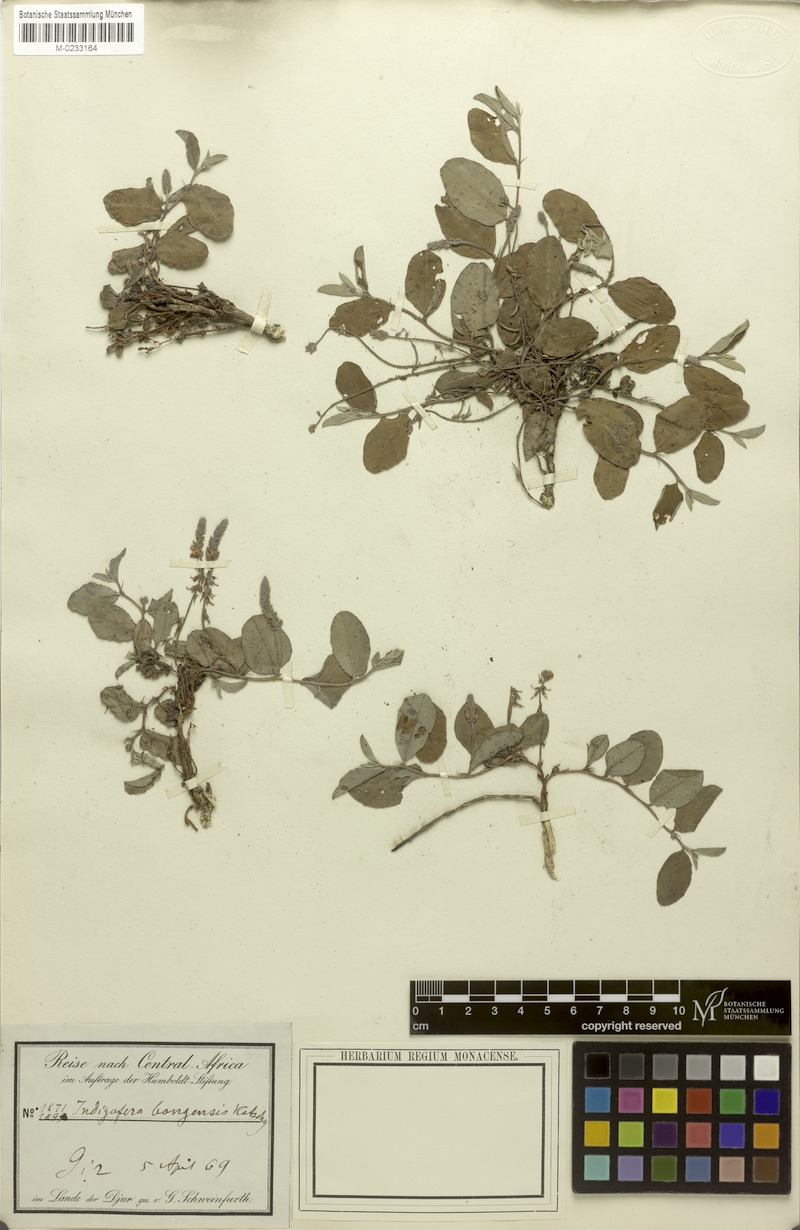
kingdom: Plantae
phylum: Tracheophyta
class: Magnoliopsida
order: Fabales
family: Fabaceae
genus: Indigofera
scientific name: Indigofera bongensis
